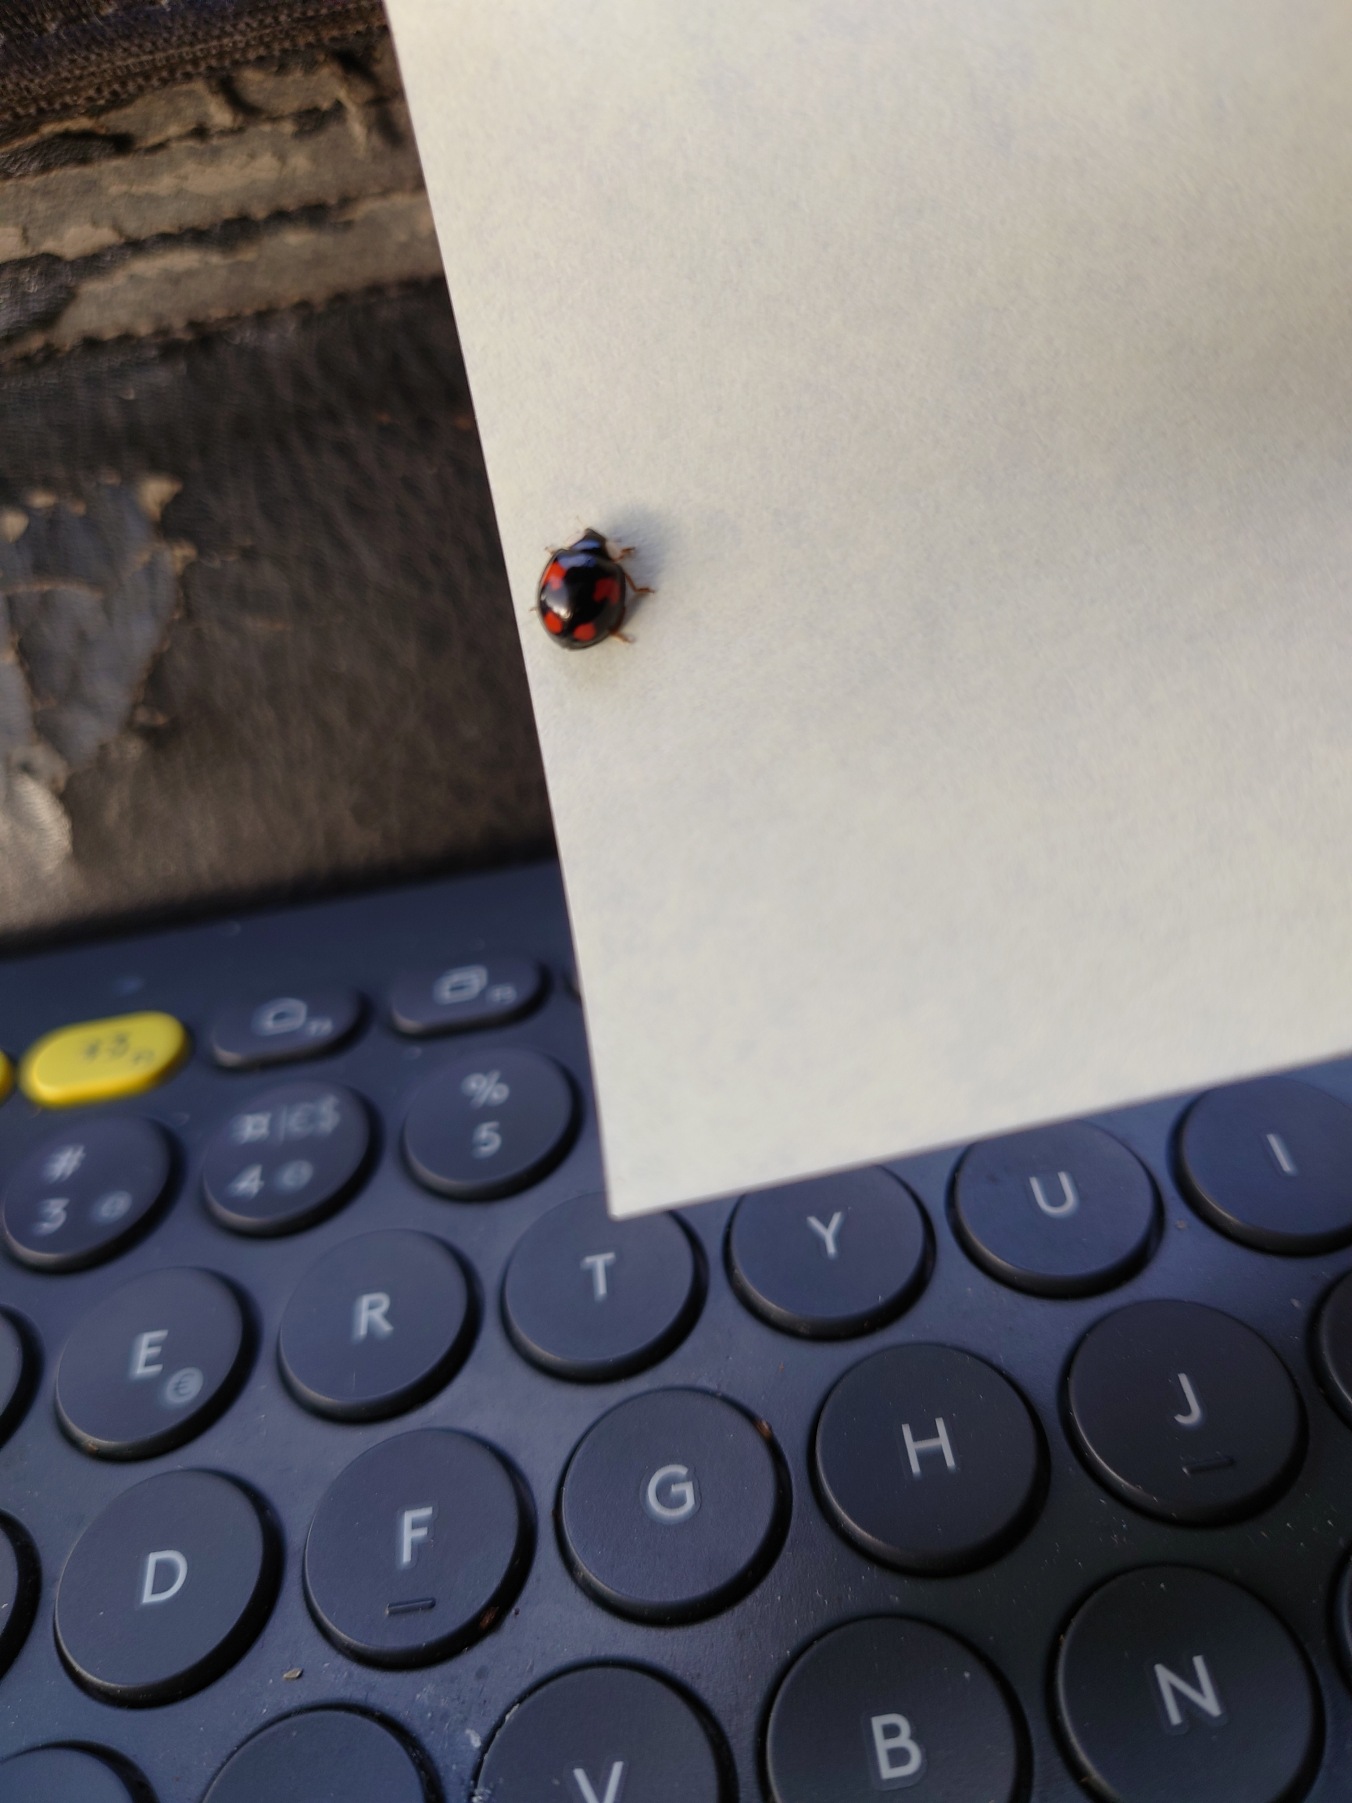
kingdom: Animalia
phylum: Arthropoda
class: Insecta
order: Coleoptera
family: Coccinellidae
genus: Harmonia
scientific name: Harmonia axyridis
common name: Harlekinmariehøne
